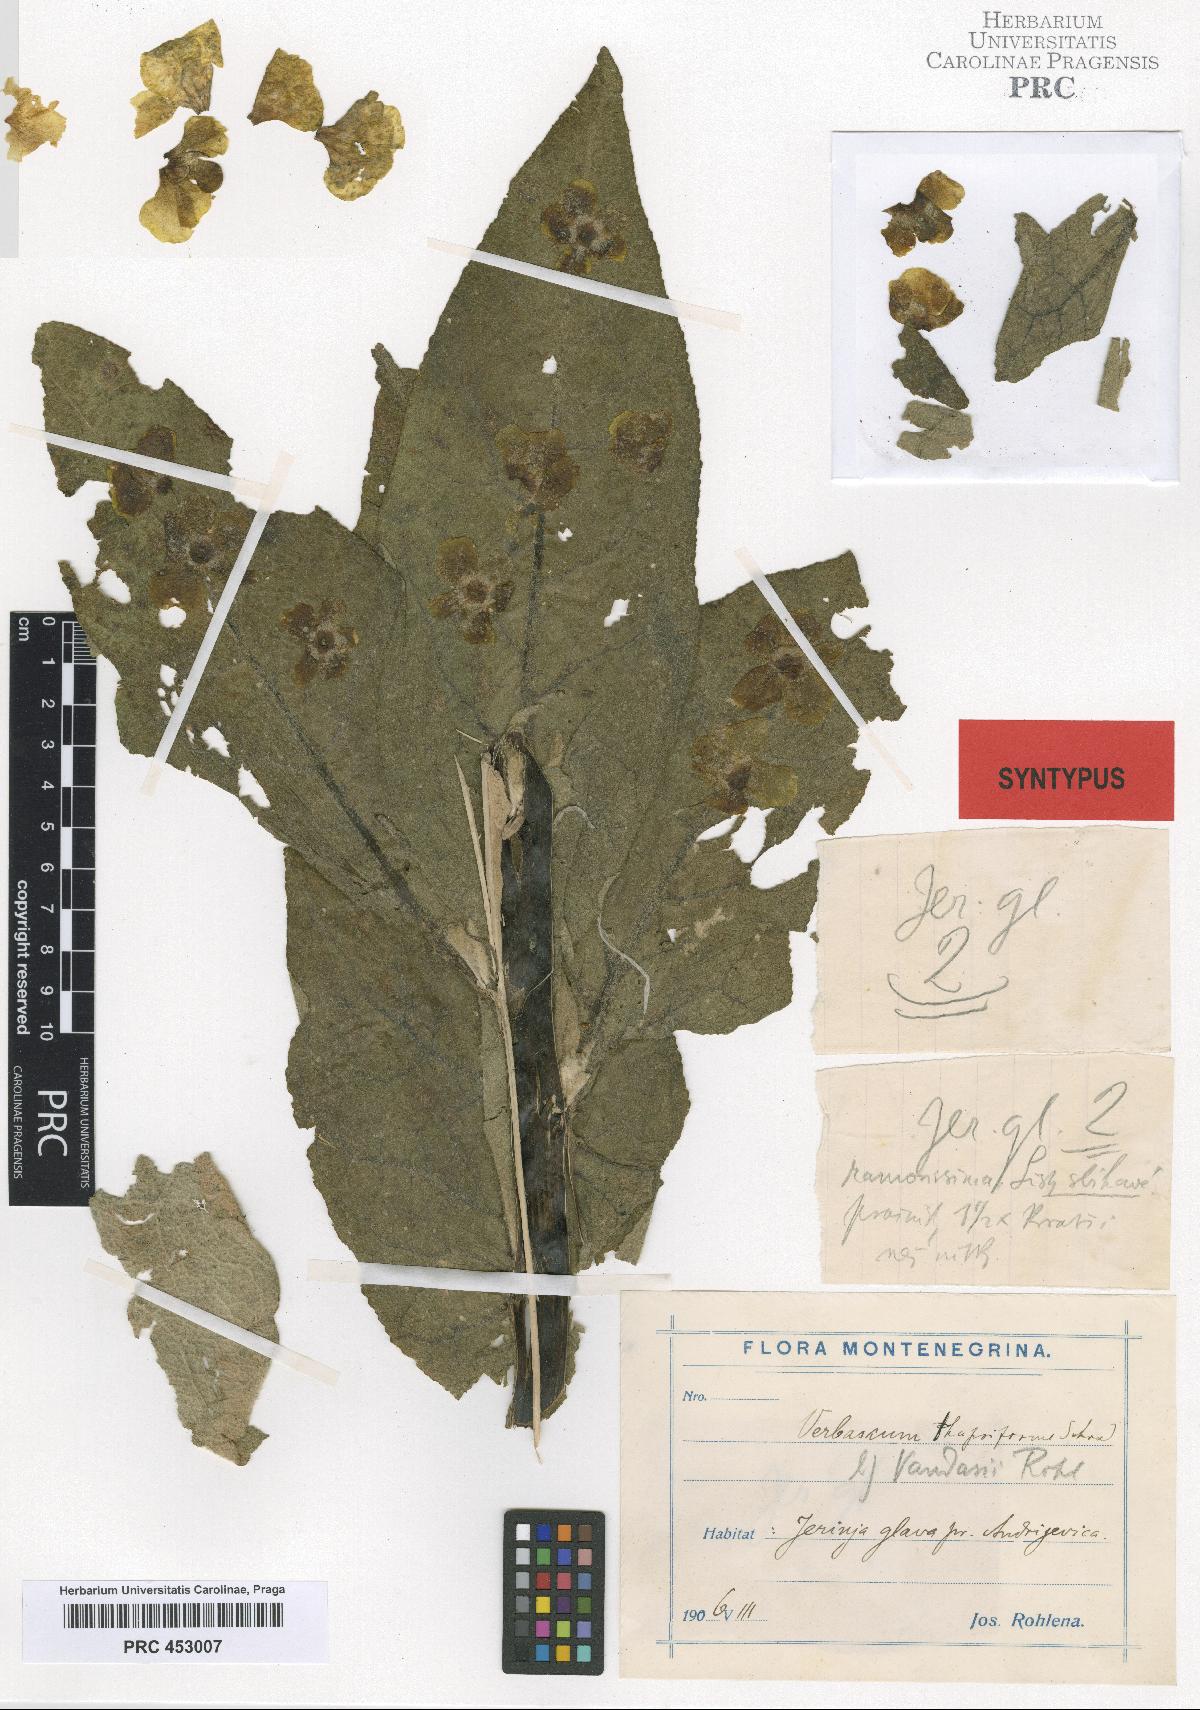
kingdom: Plantae
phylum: Tracheophyta
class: Magnoliopsida
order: Lamiales
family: Scrophulariaceae
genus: Verbascum
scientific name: Verbascum vandasii
